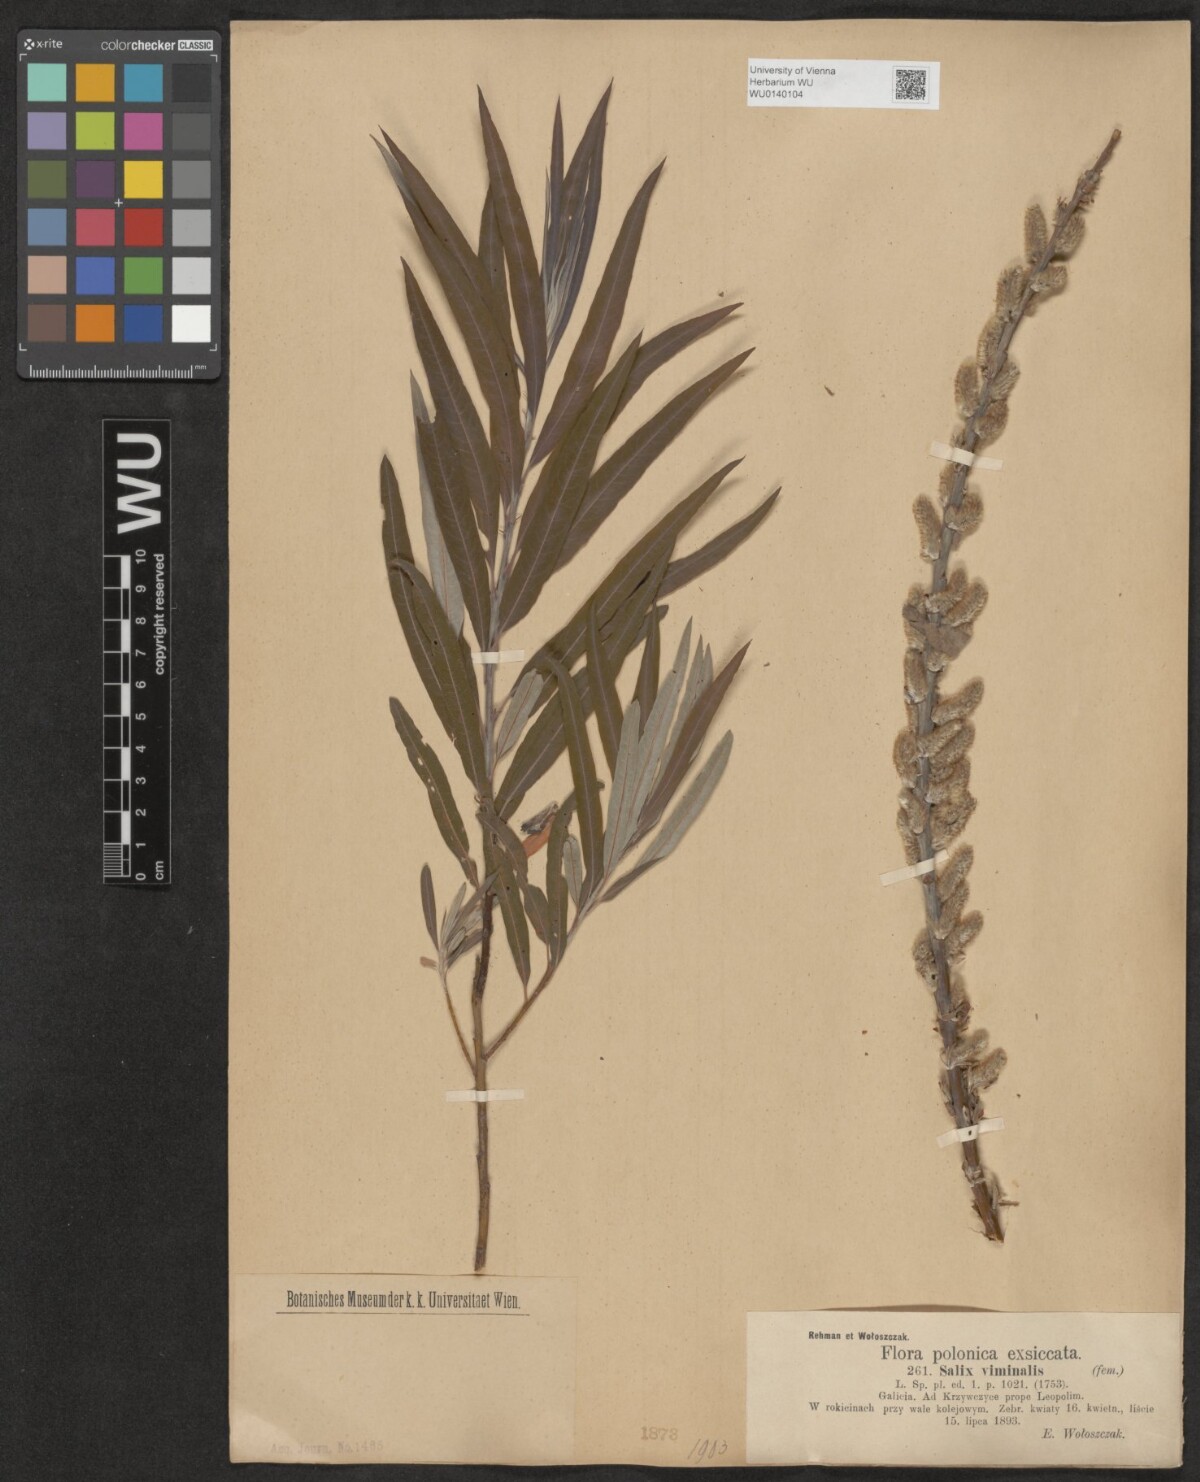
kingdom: Plantae
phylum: Tracheophyta
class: Magnoliopsida
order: Malpighiales
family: Salicaceae
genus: Salix
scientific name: Salix viminalis
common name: Osier
